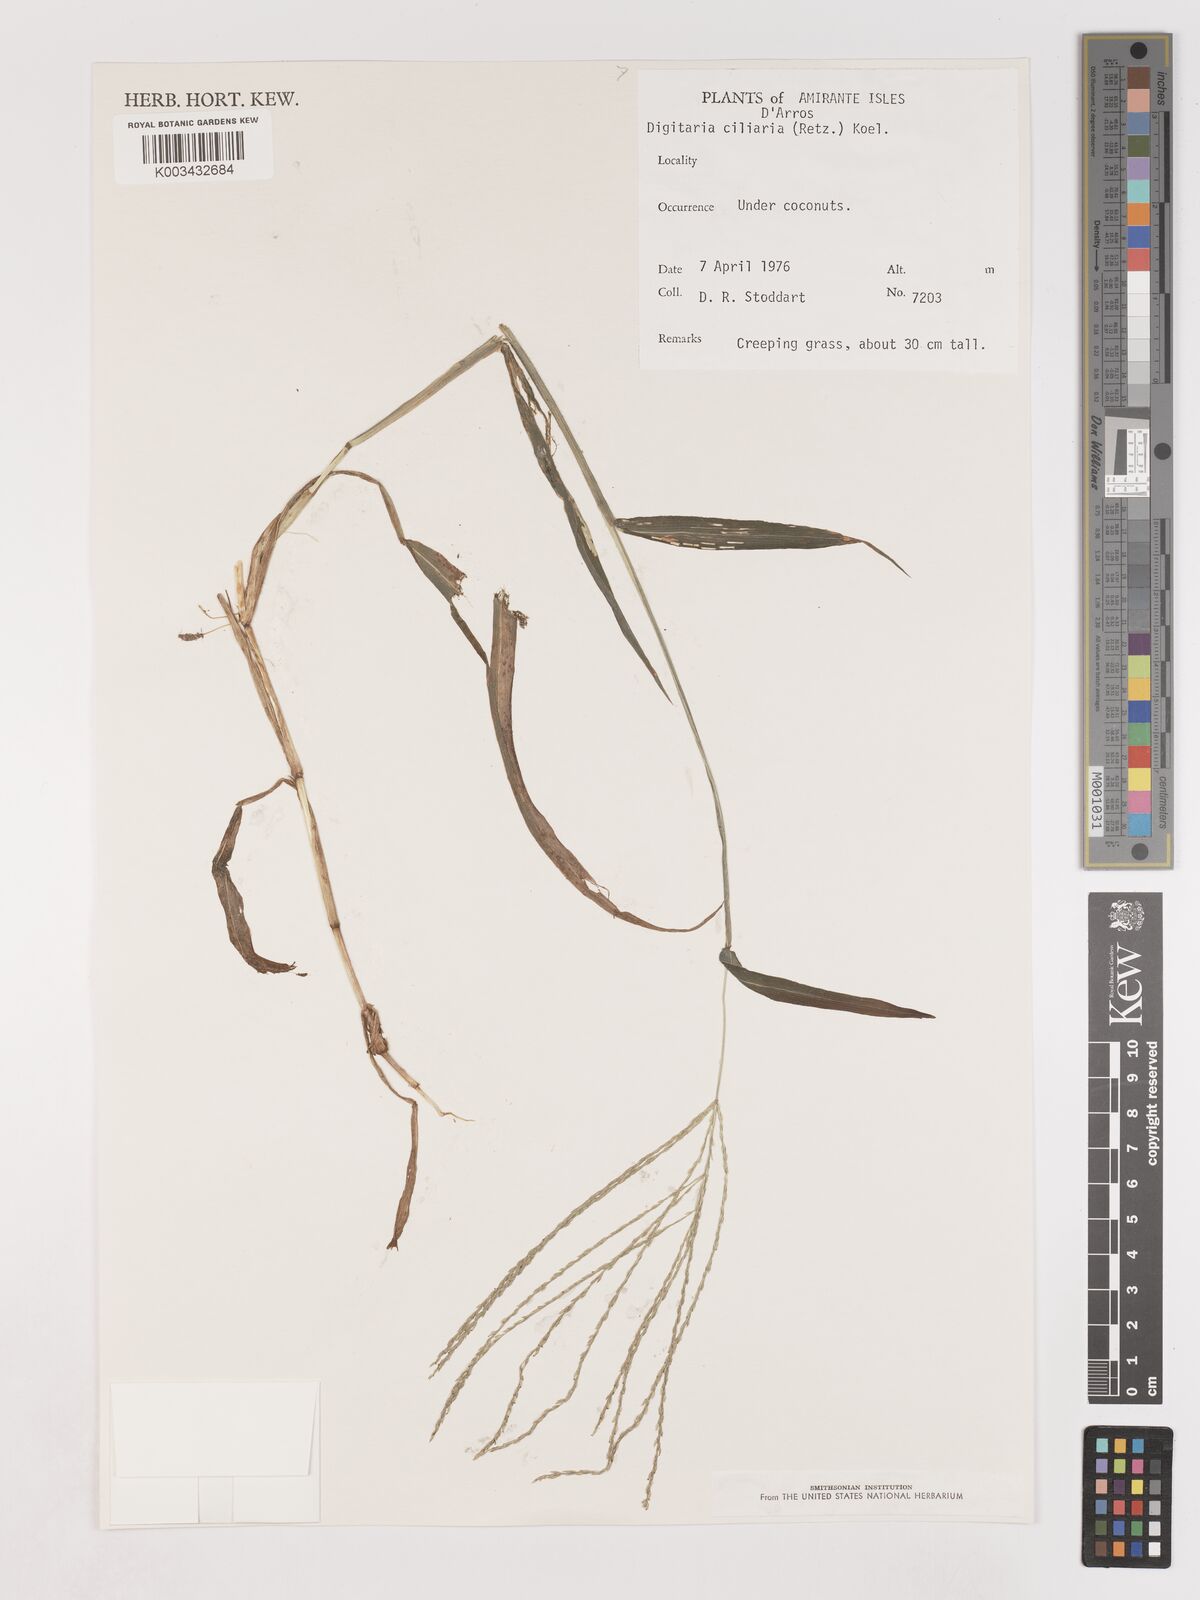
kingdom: Plantae
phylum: Tracheophyta
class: Liliopsida
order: Poales
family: Poaceae
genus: Digitaria
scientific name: Digitaria ciliaris
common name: Tropical finger-grass
